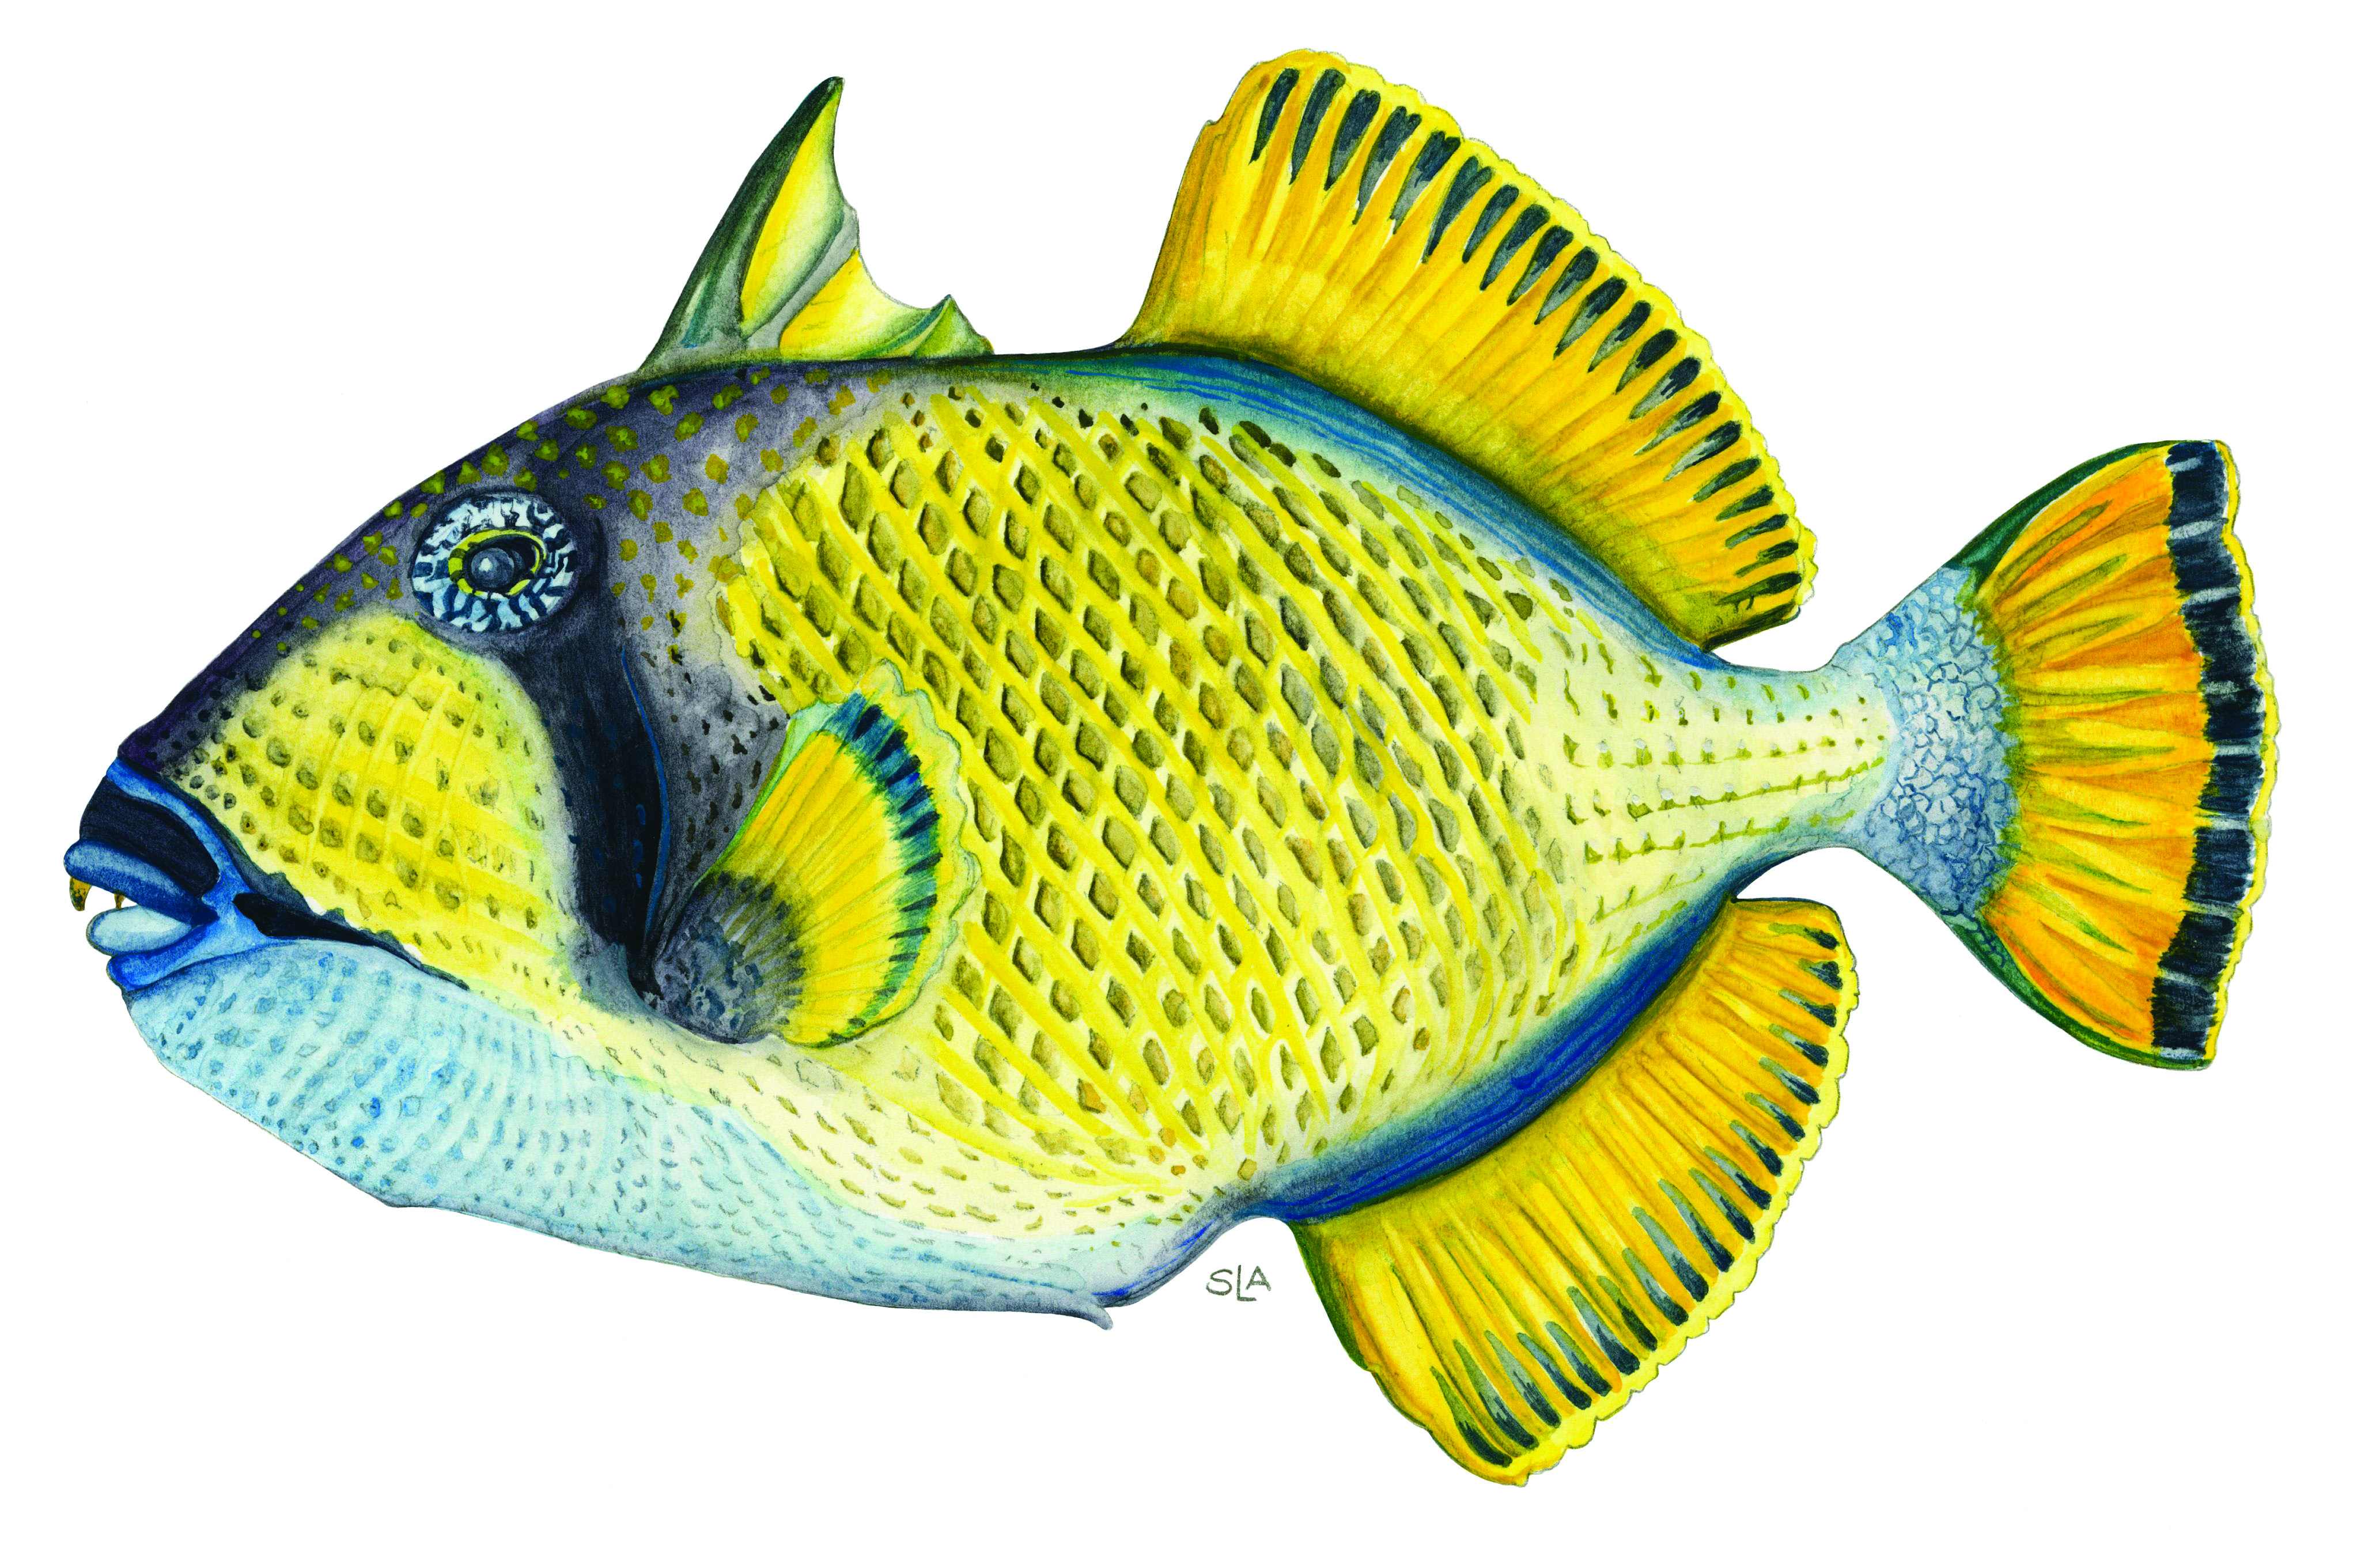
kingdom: Animalia
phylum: Chordata
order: Tetraodontiformes
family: Balistidae
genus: Balistoides
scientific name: Balistoides viridescens
